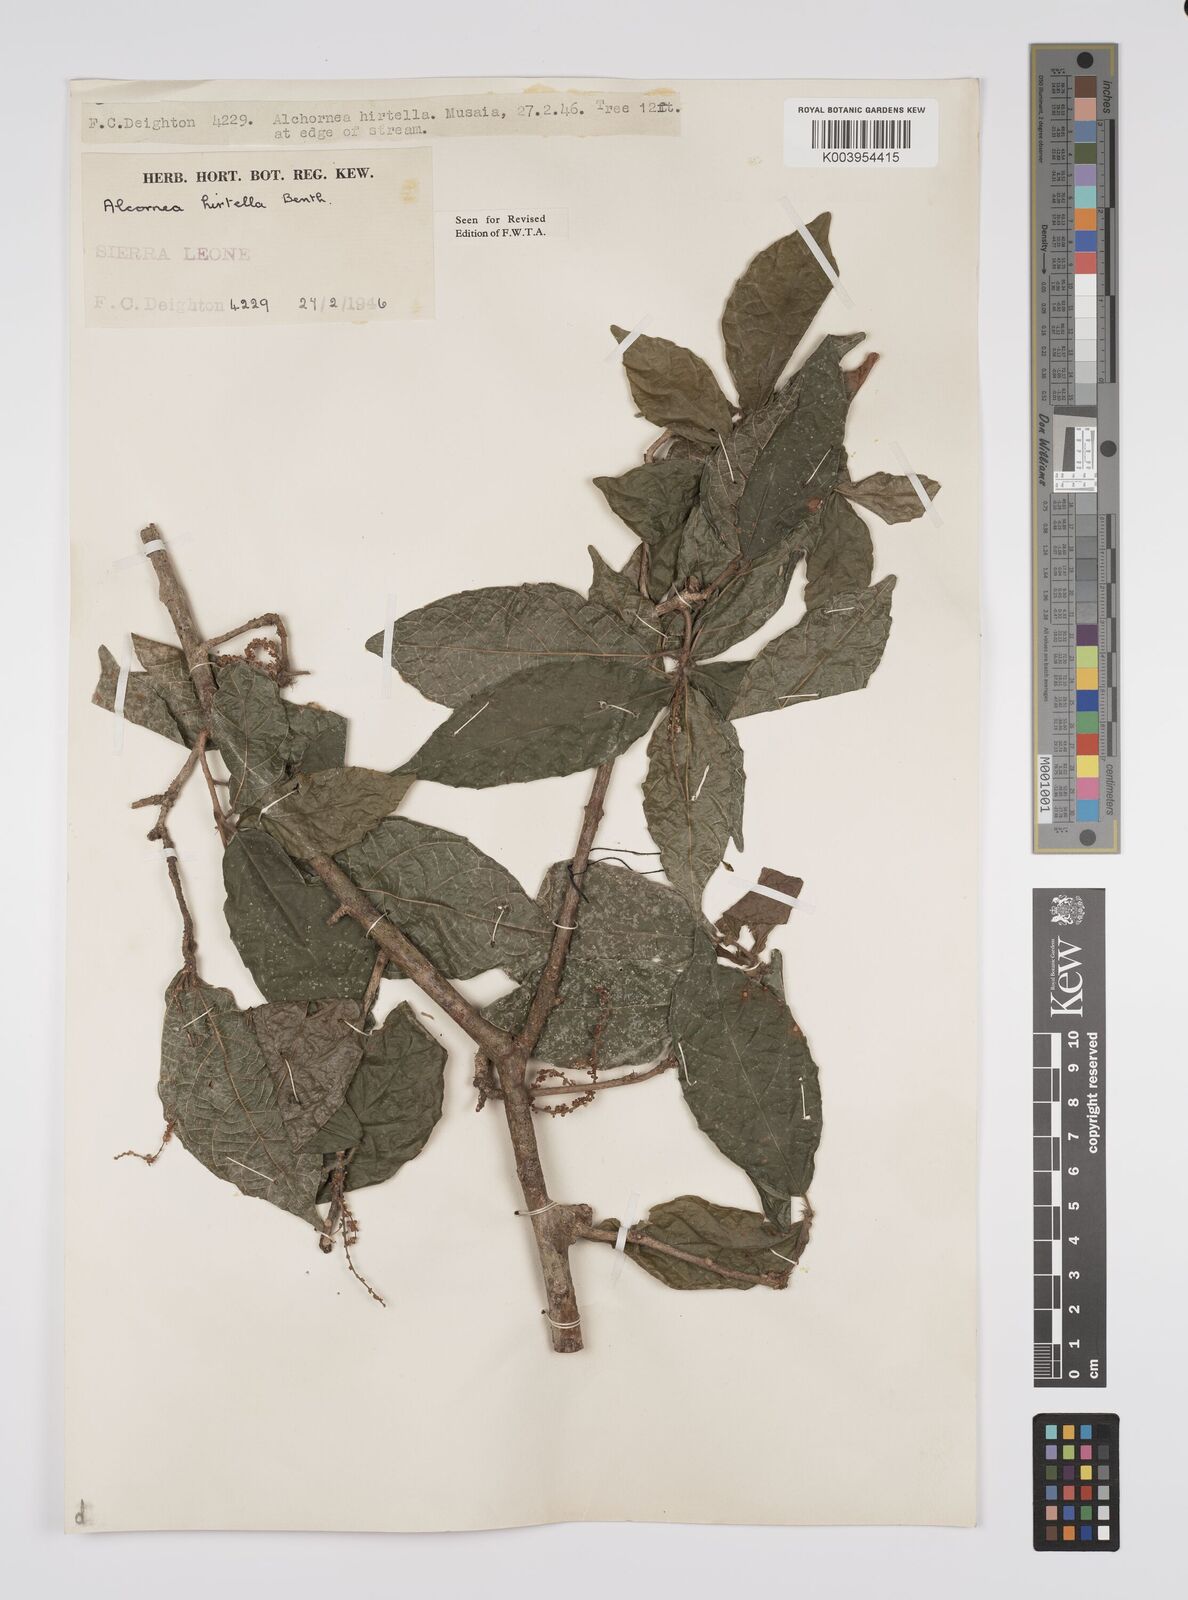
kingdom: Plantae
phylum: Tracheophyta
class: Magnoliopsida
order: Malpighiales
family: Euphorbiaceae
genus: Alchornea
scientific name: Alchornea hirtella
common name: Forest bead-string
